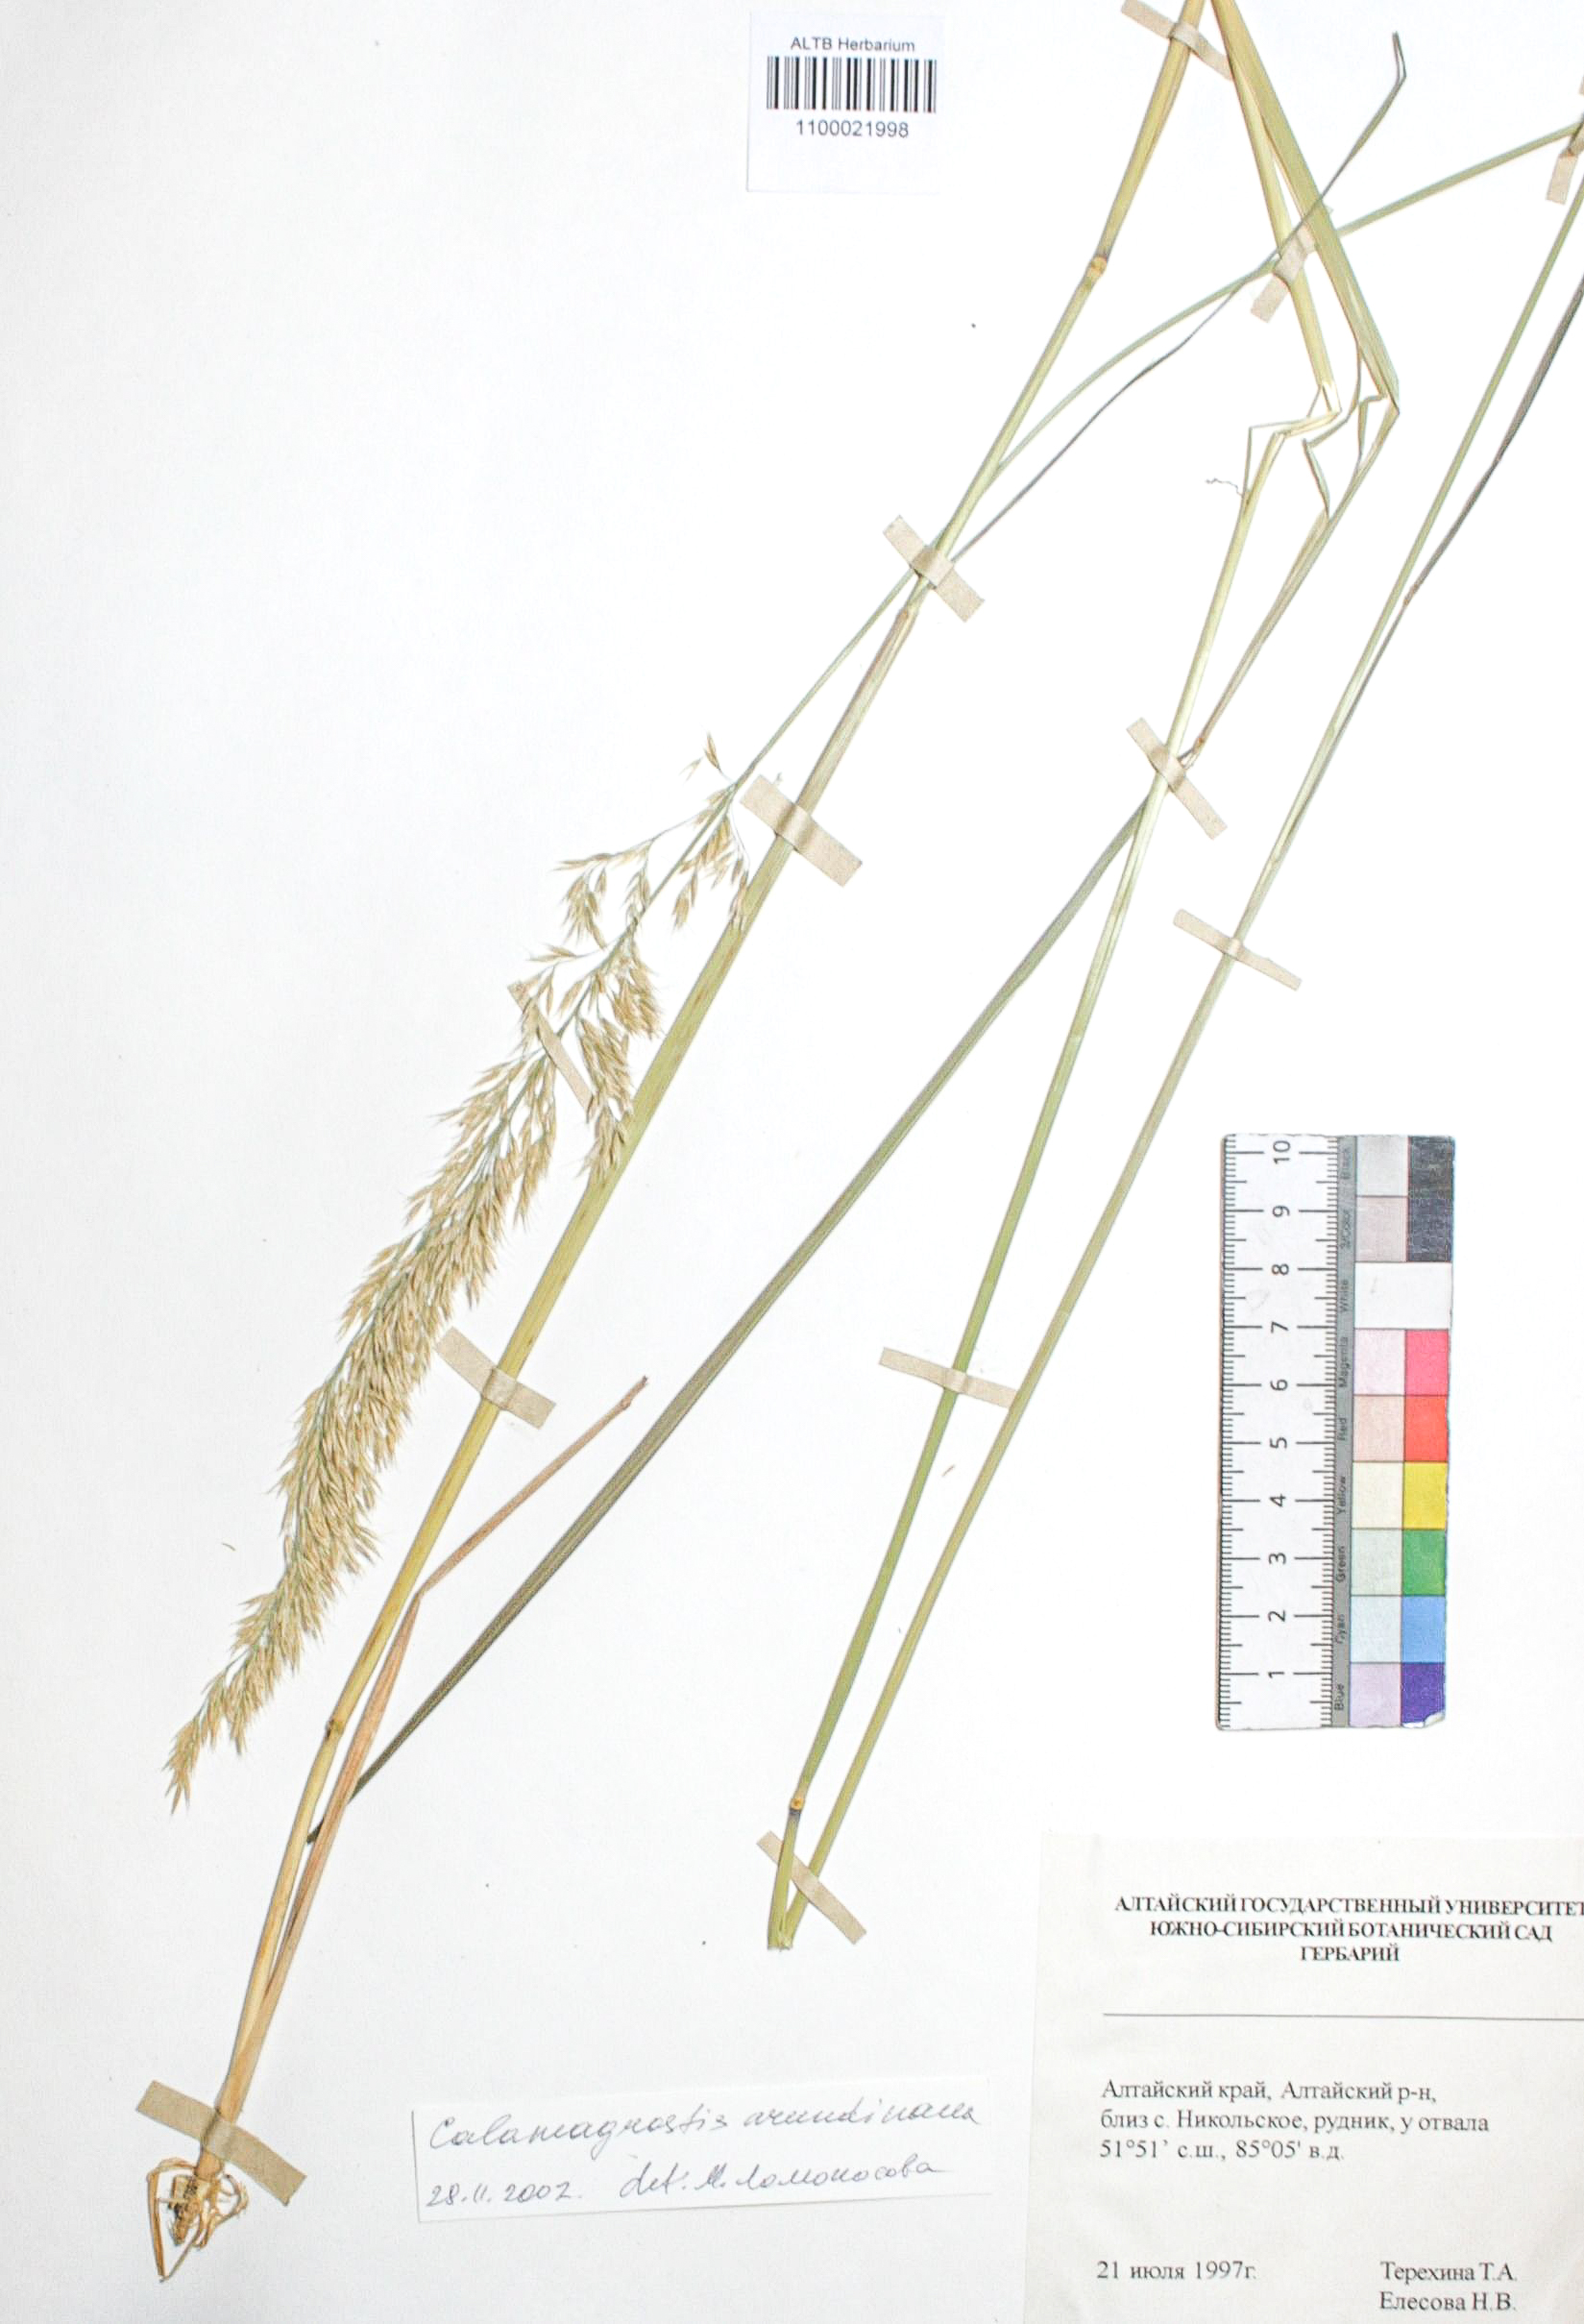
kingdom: Plantae
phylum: Tracheophyta
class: Liliopsida
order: Poales
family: Poaceae
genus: Calamagrostis
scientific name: Calamagrostis arundinacea
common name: Metskastik
